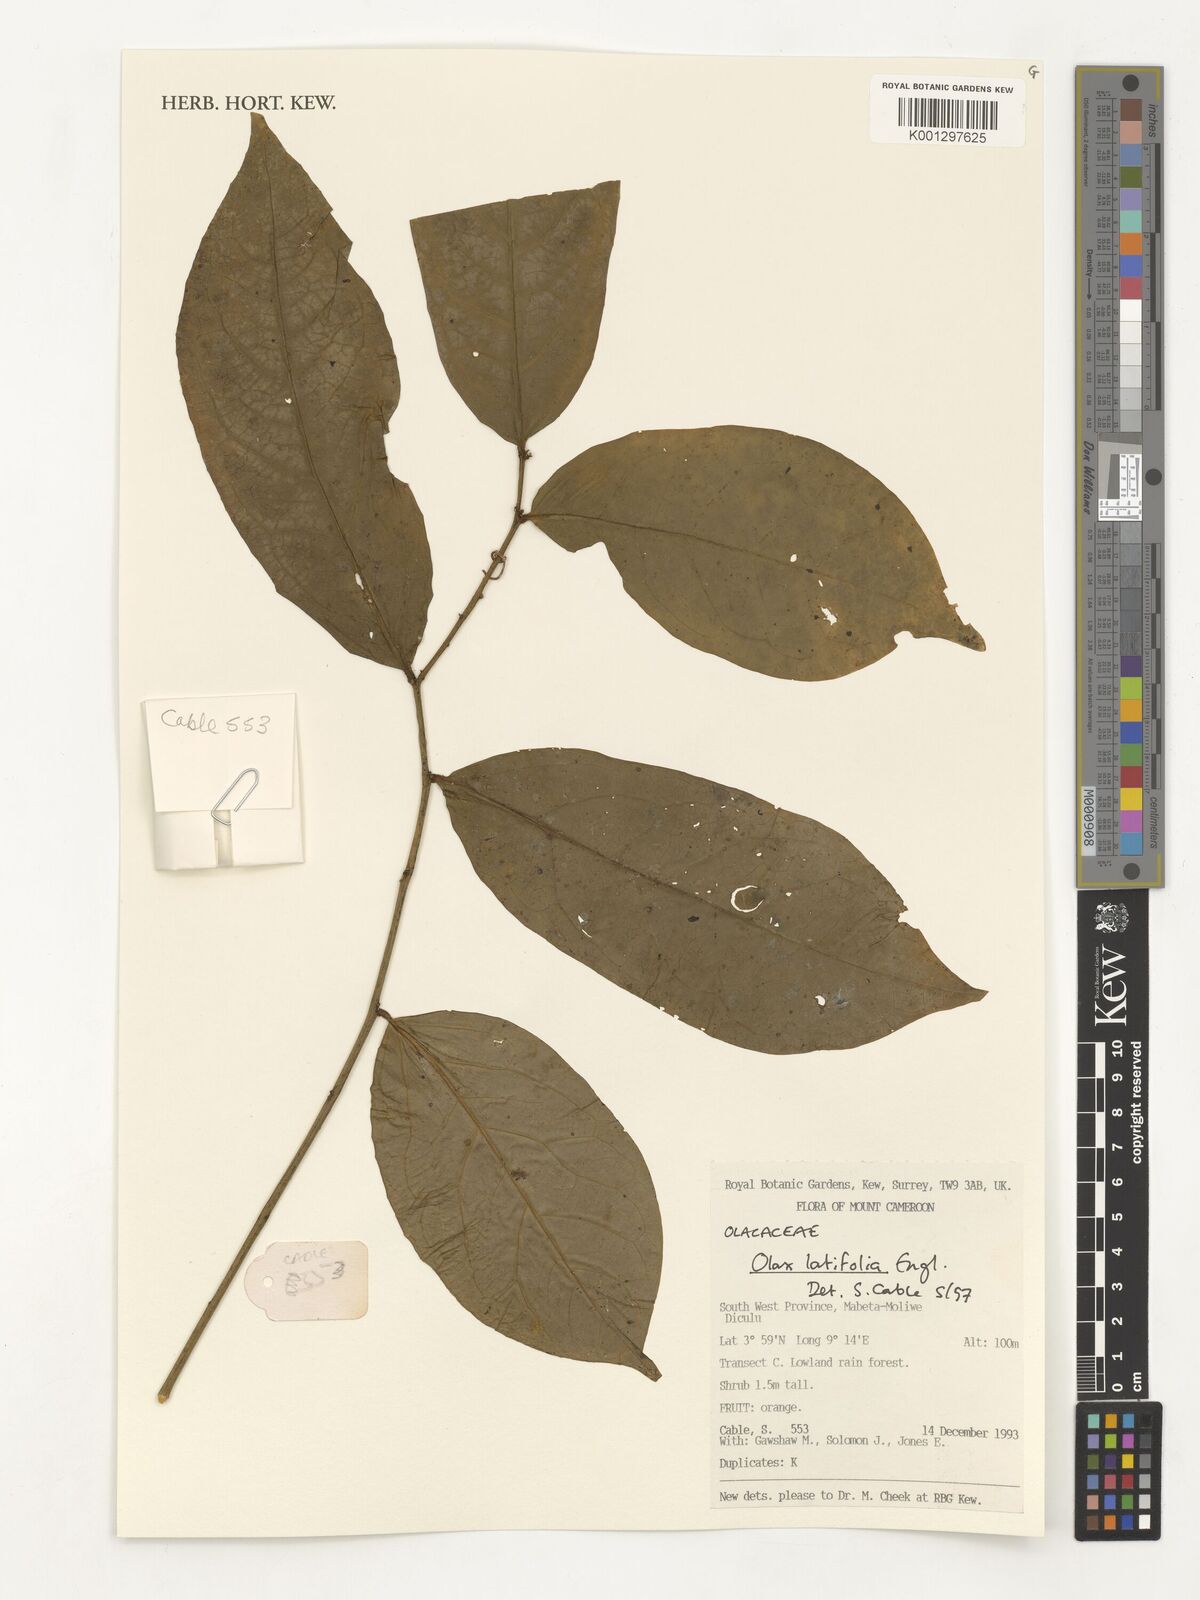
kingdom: Plantae
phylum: Tracheophyta
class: Magnoliopsida
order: Santalales
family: Olacaceae
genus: Olax
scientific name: Olax latifolia
